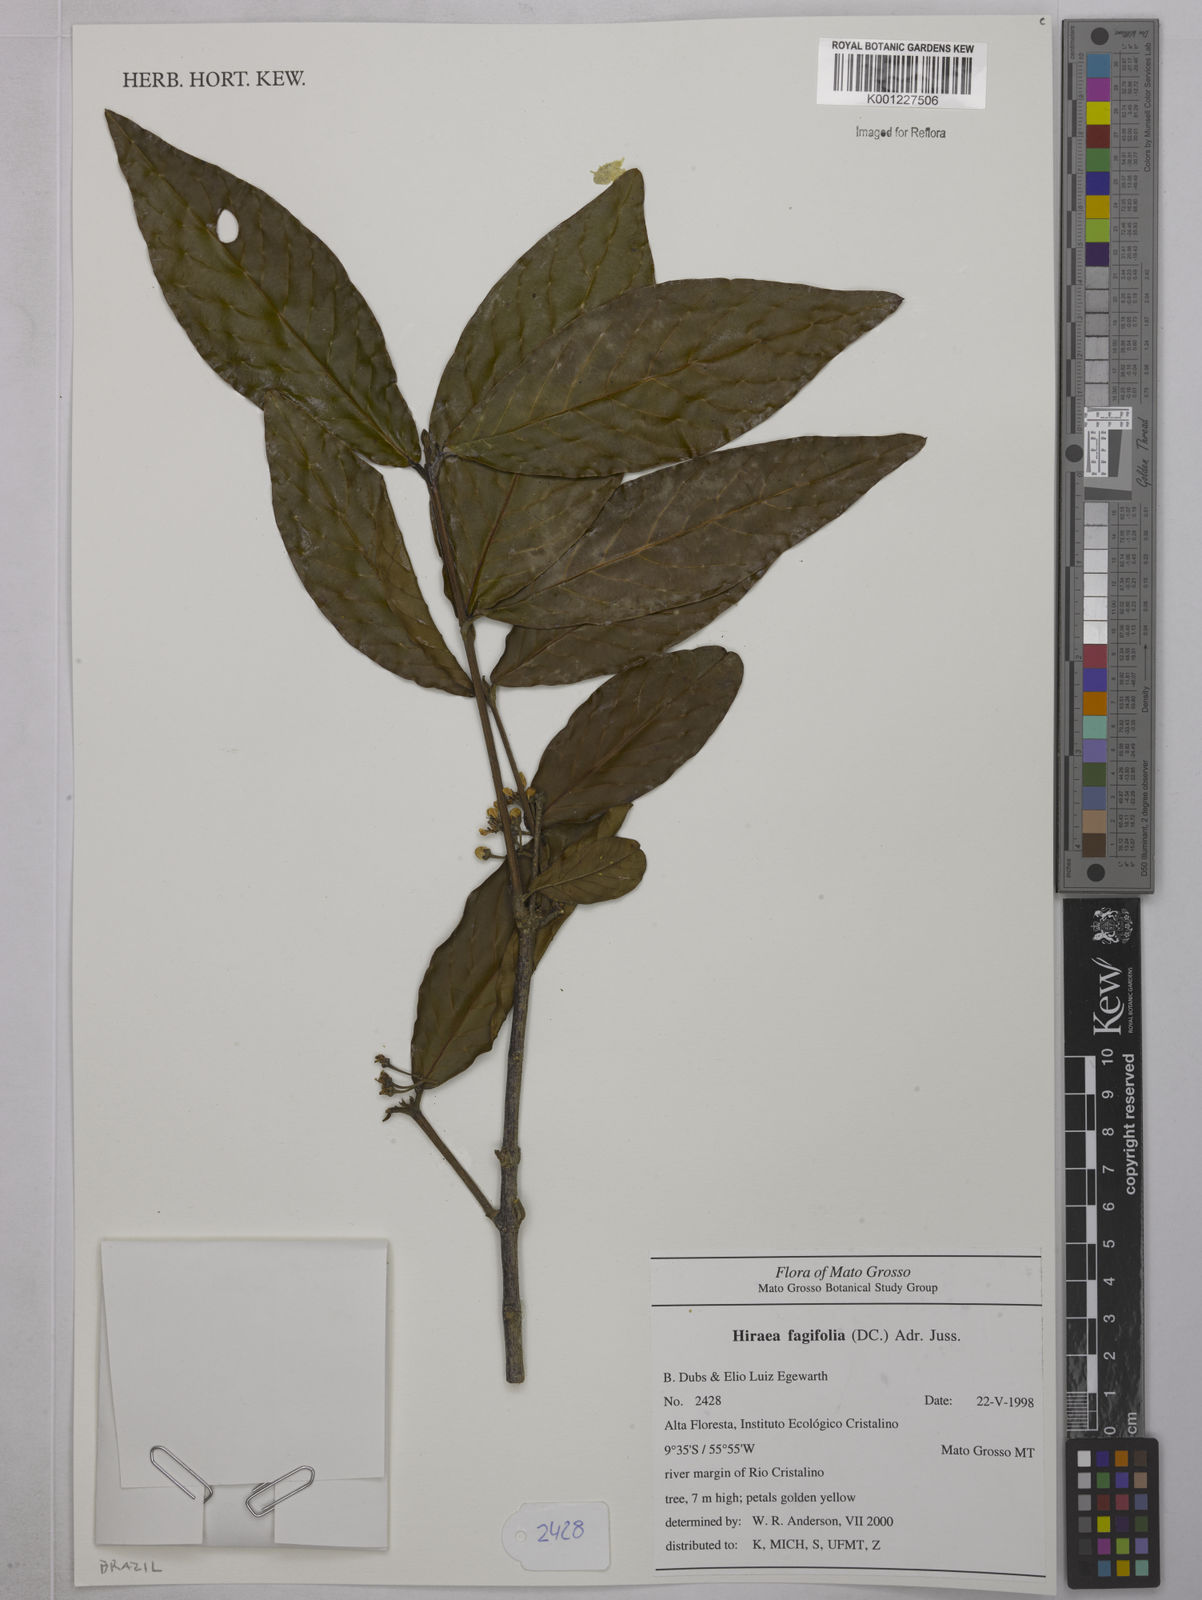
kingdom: Plantae
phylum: Tracheophyta
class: Magnoliopsida
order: Malpighiales
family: Malpighiaceae
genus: Hiraea
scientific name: Hiraea fagifolia
